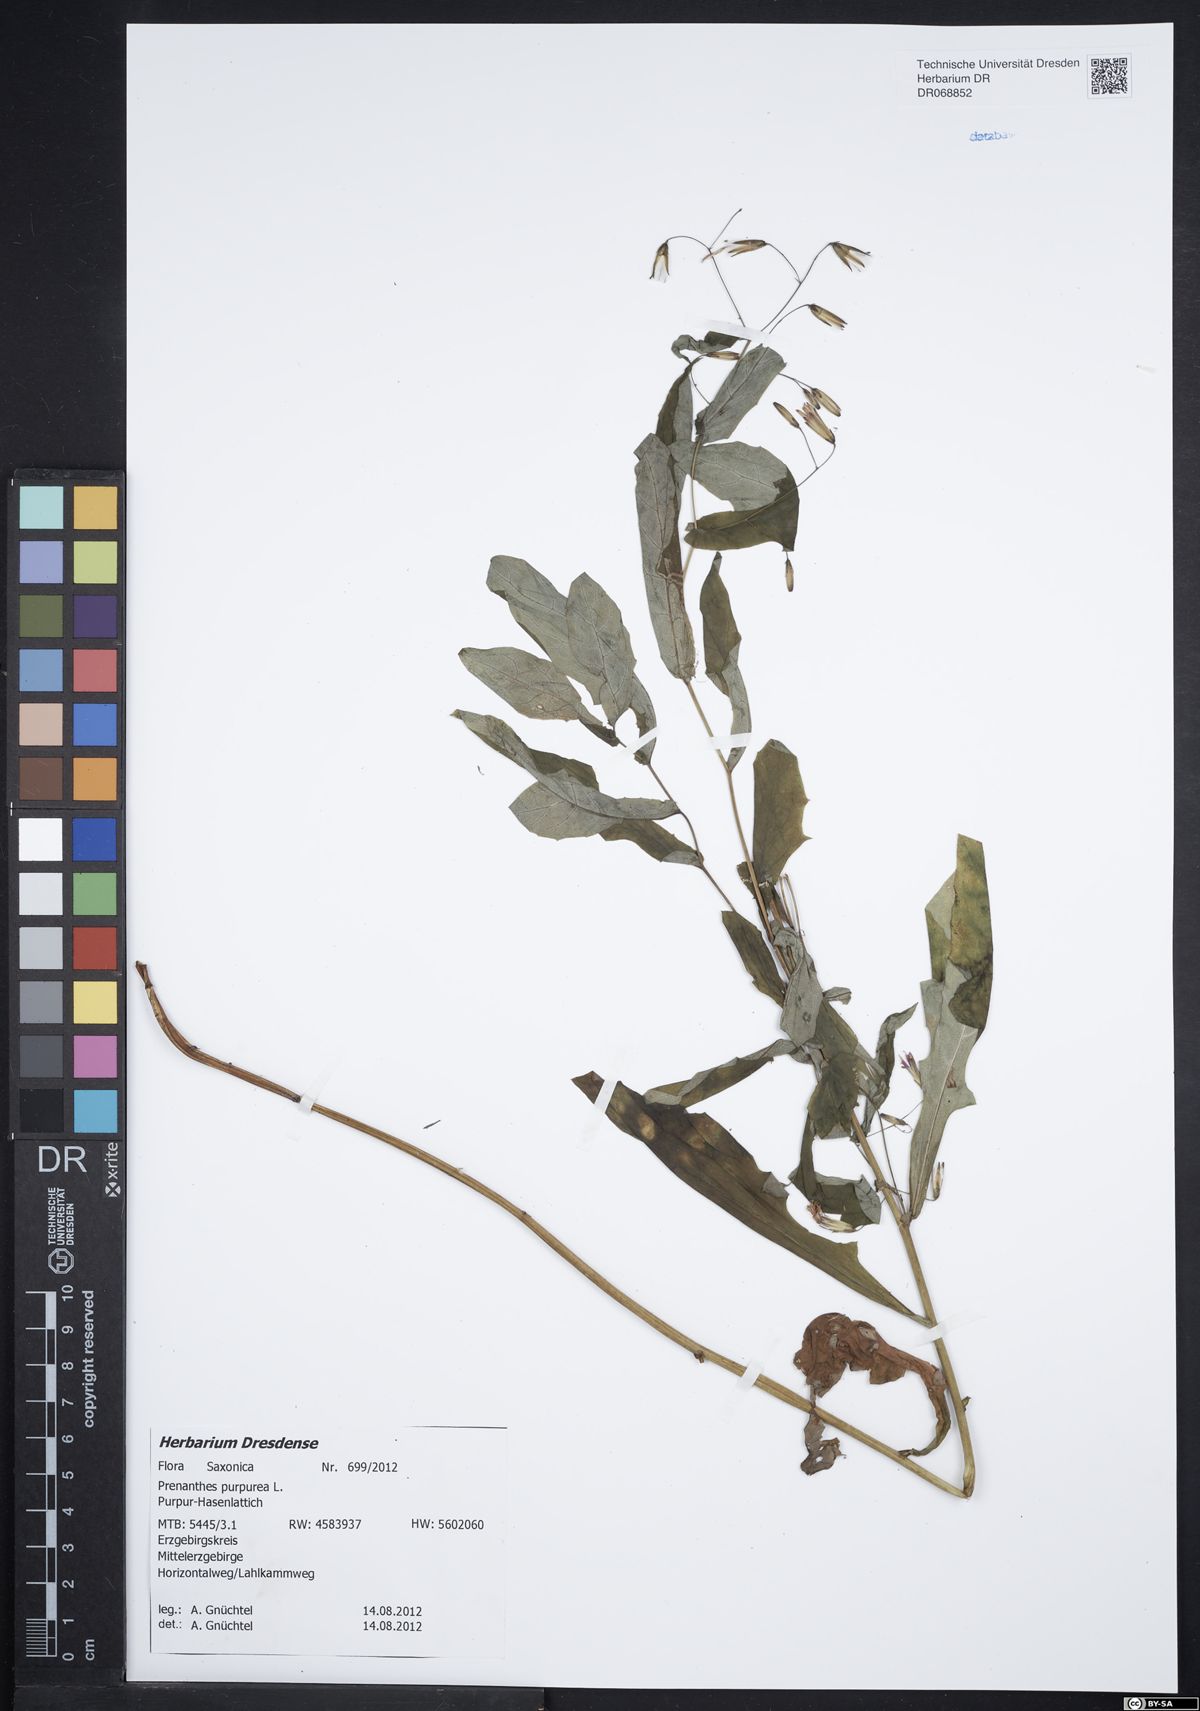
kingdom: Plantae
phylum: Tracheophyta
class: Magnoliopsida
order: Asterales
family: Asteraceae
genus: Prenanthes
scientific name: Prenanthes purpurea
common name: Purple lettuce
